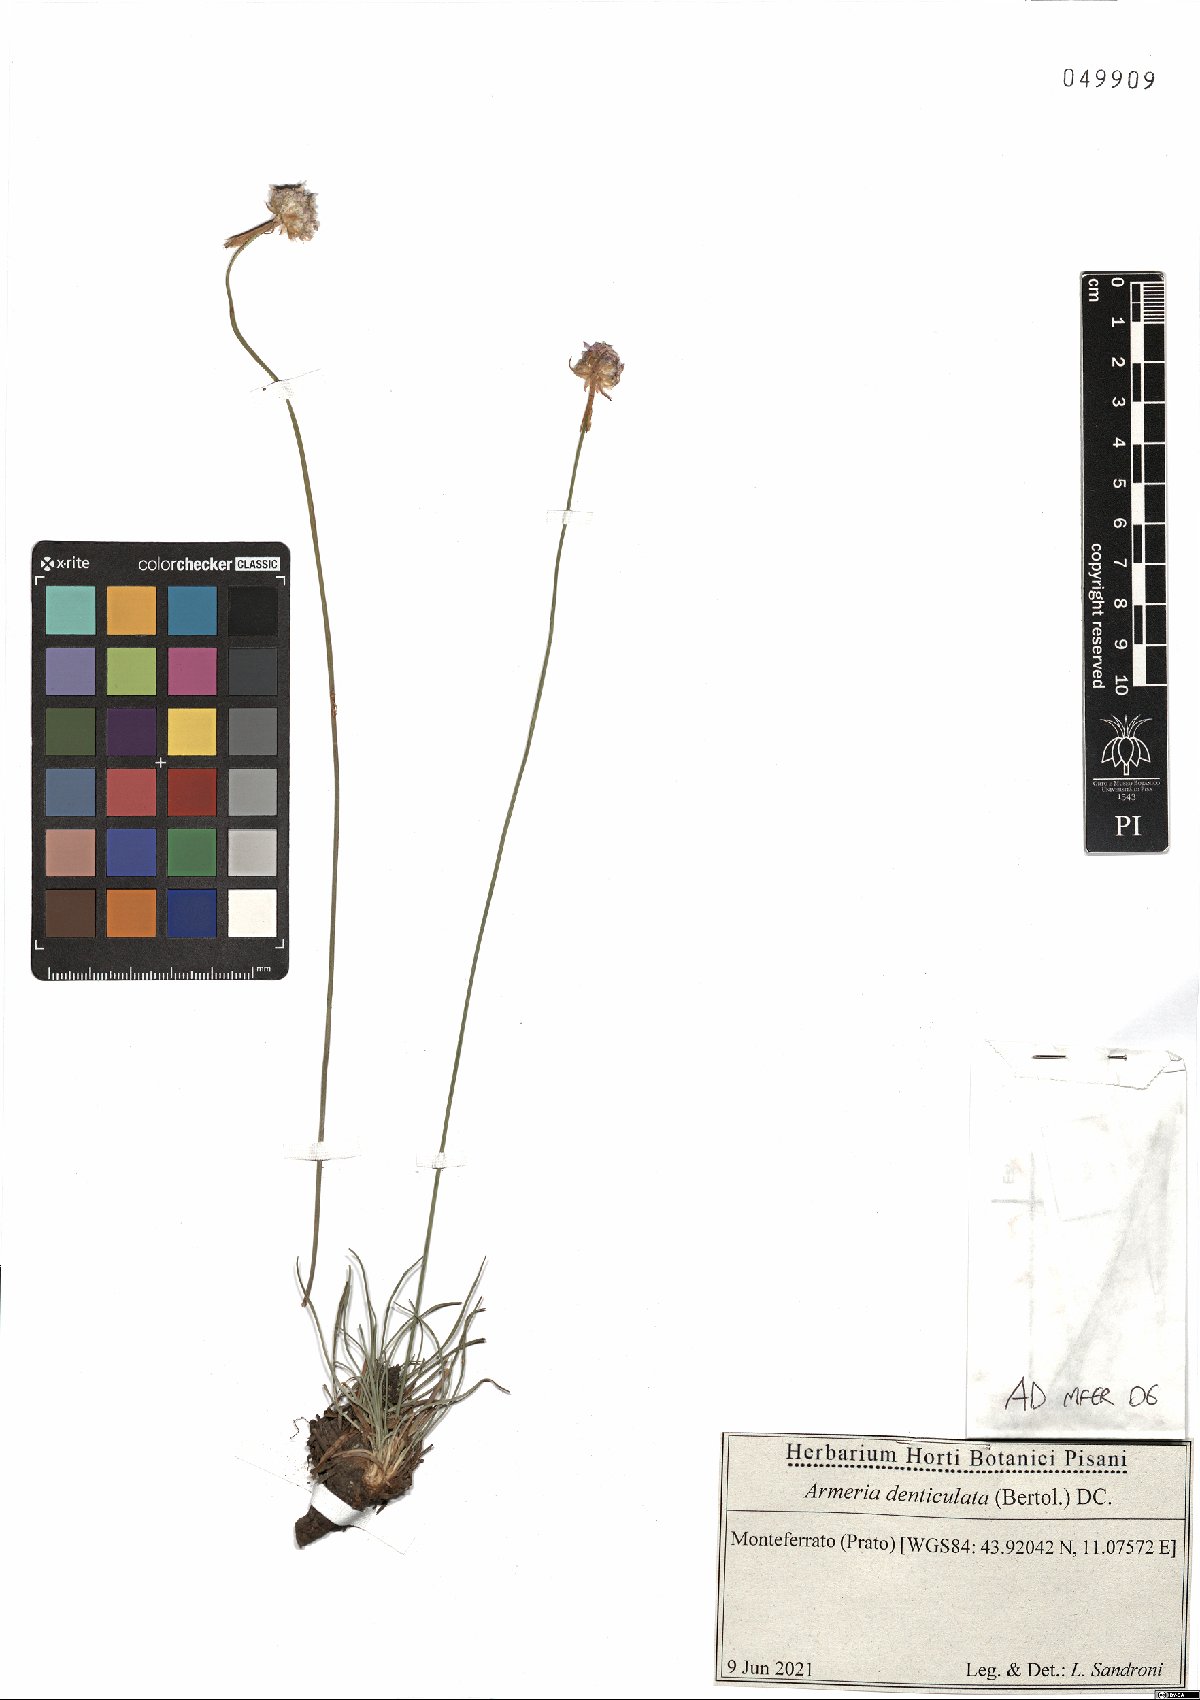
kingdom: Plantae
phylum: Tracheophyta
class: Magnoliopsida
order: Caryophyllales
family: Plumbaginaceae
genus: Armeria
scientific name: Armeria denticulata
